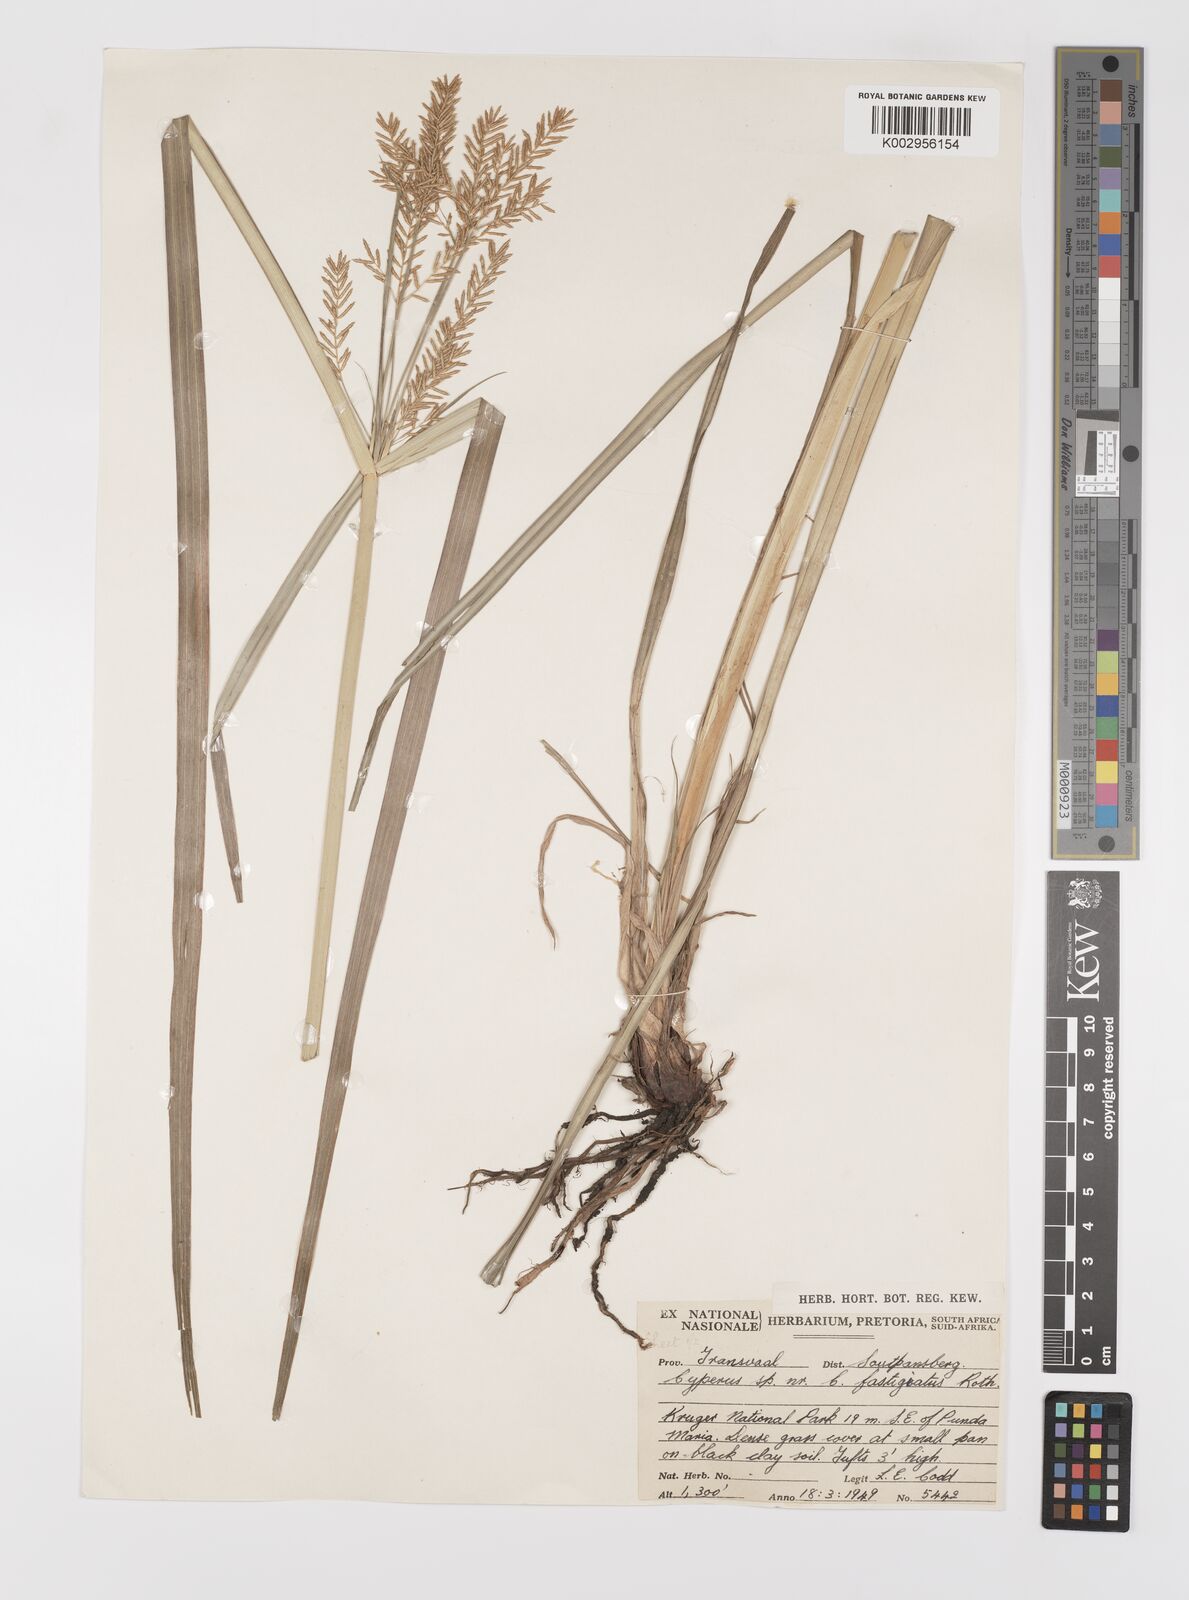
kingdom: Plantae
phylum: Tracheophyta
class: Liliopsida
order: Poales
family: Cyperaceae
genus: Cyperus
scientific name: Cyperus digitatus
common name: Finger flatsedge
